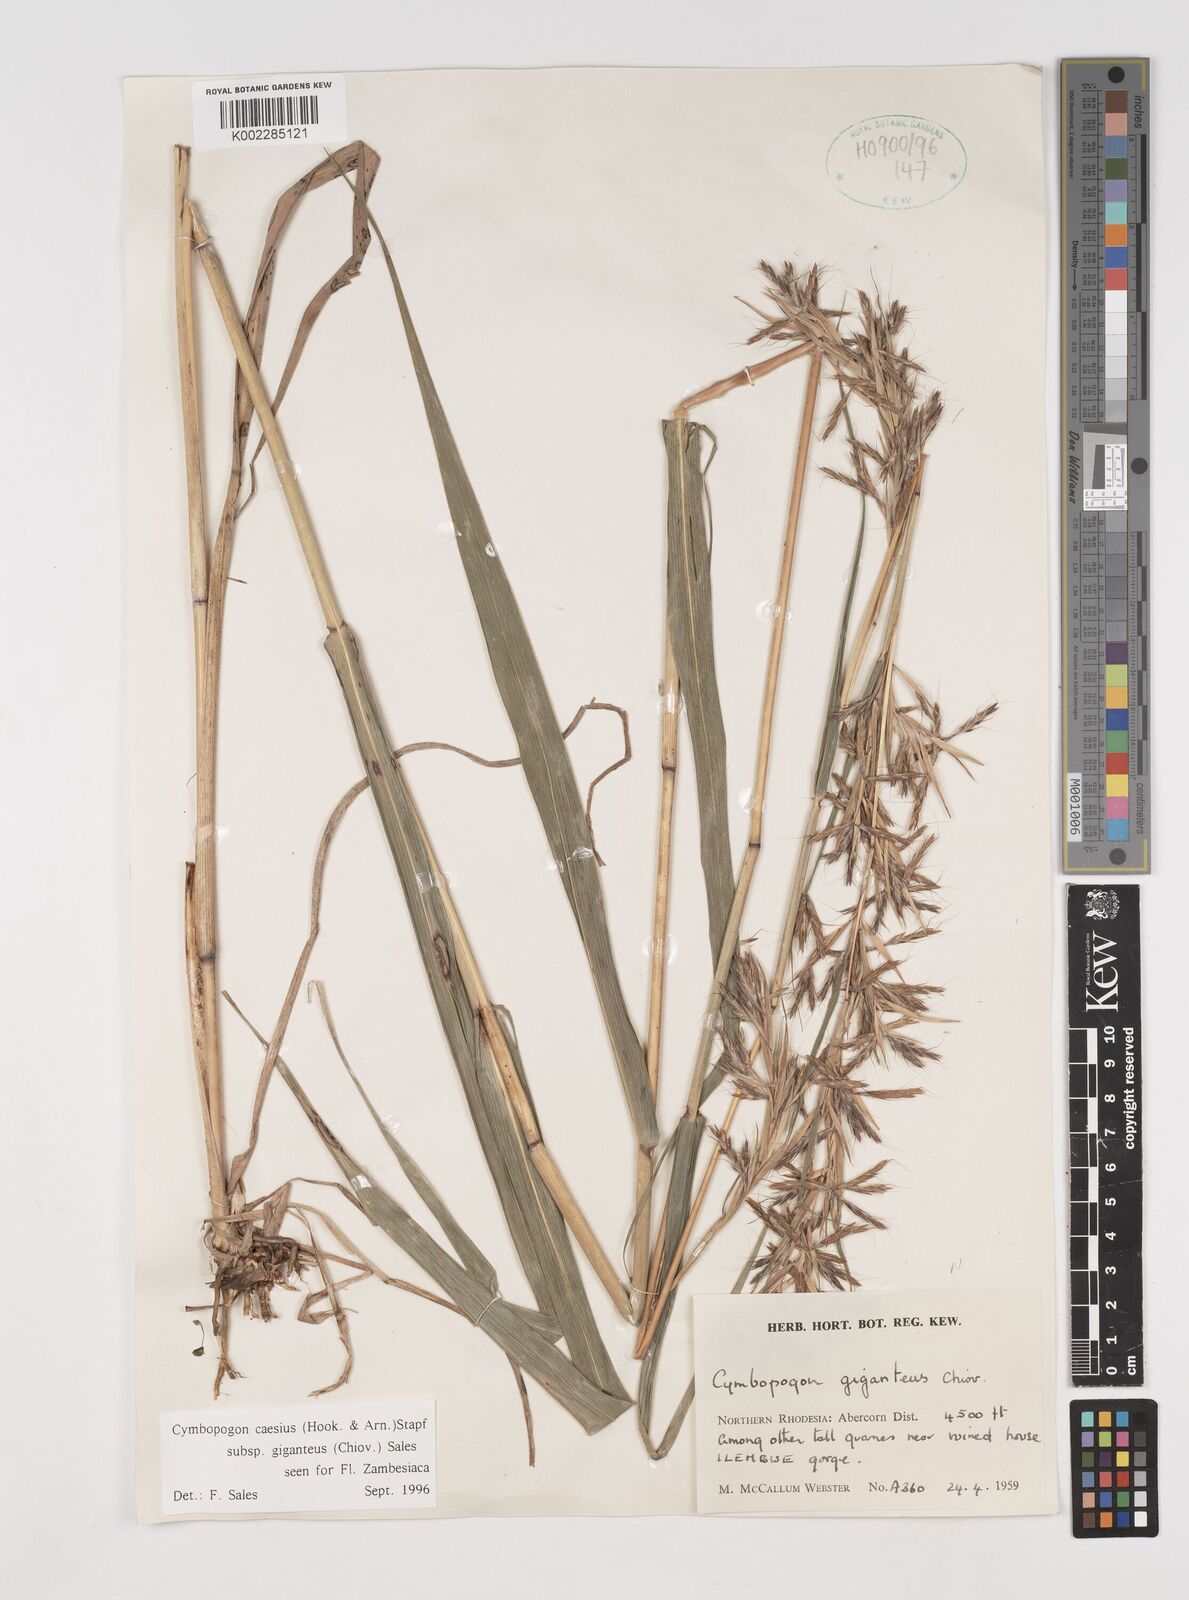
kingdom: Plantae
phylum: Tracheophyta
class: Liliopsida
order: Poales
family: Poaceae
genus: Cymbopogon
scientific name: Cymbopogon giganteus
